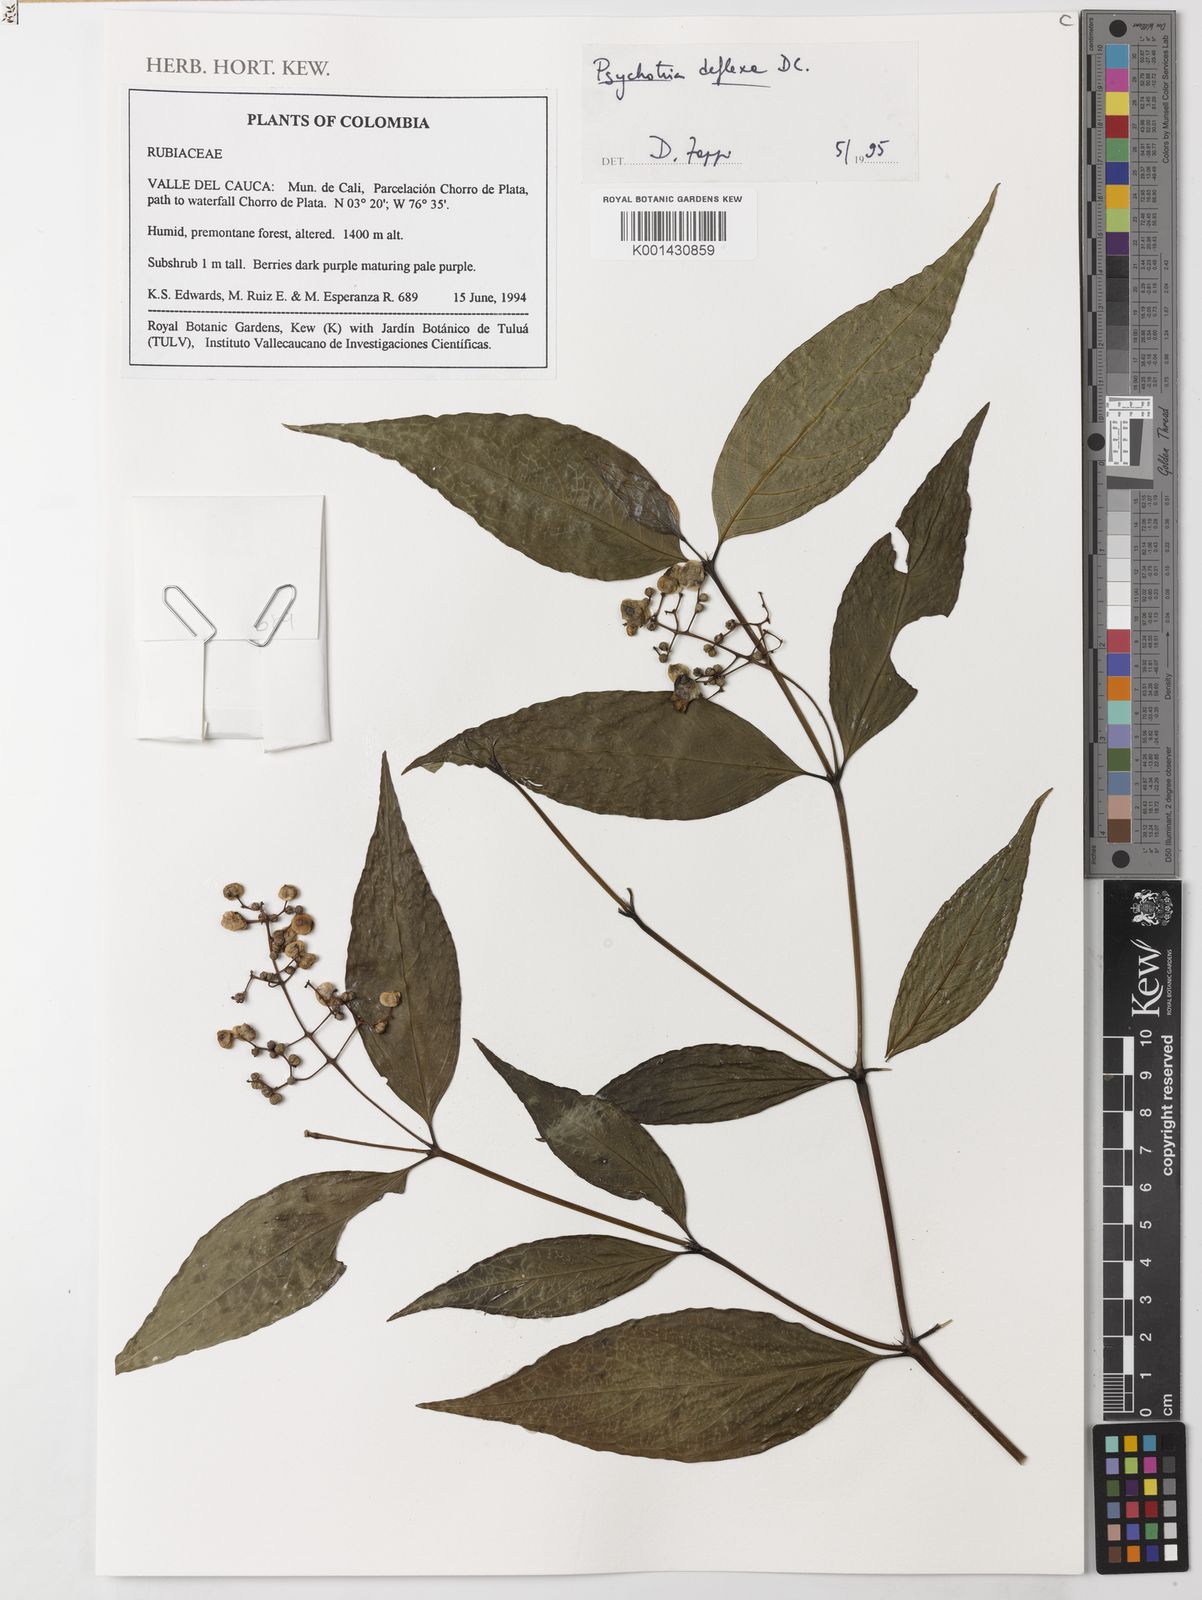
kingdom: Plantae
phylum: Tracheophyta
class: Magnoliopsida
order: Gentianales
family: Rubiaceae
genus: Palicourea
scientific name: Palicourea deflexa
